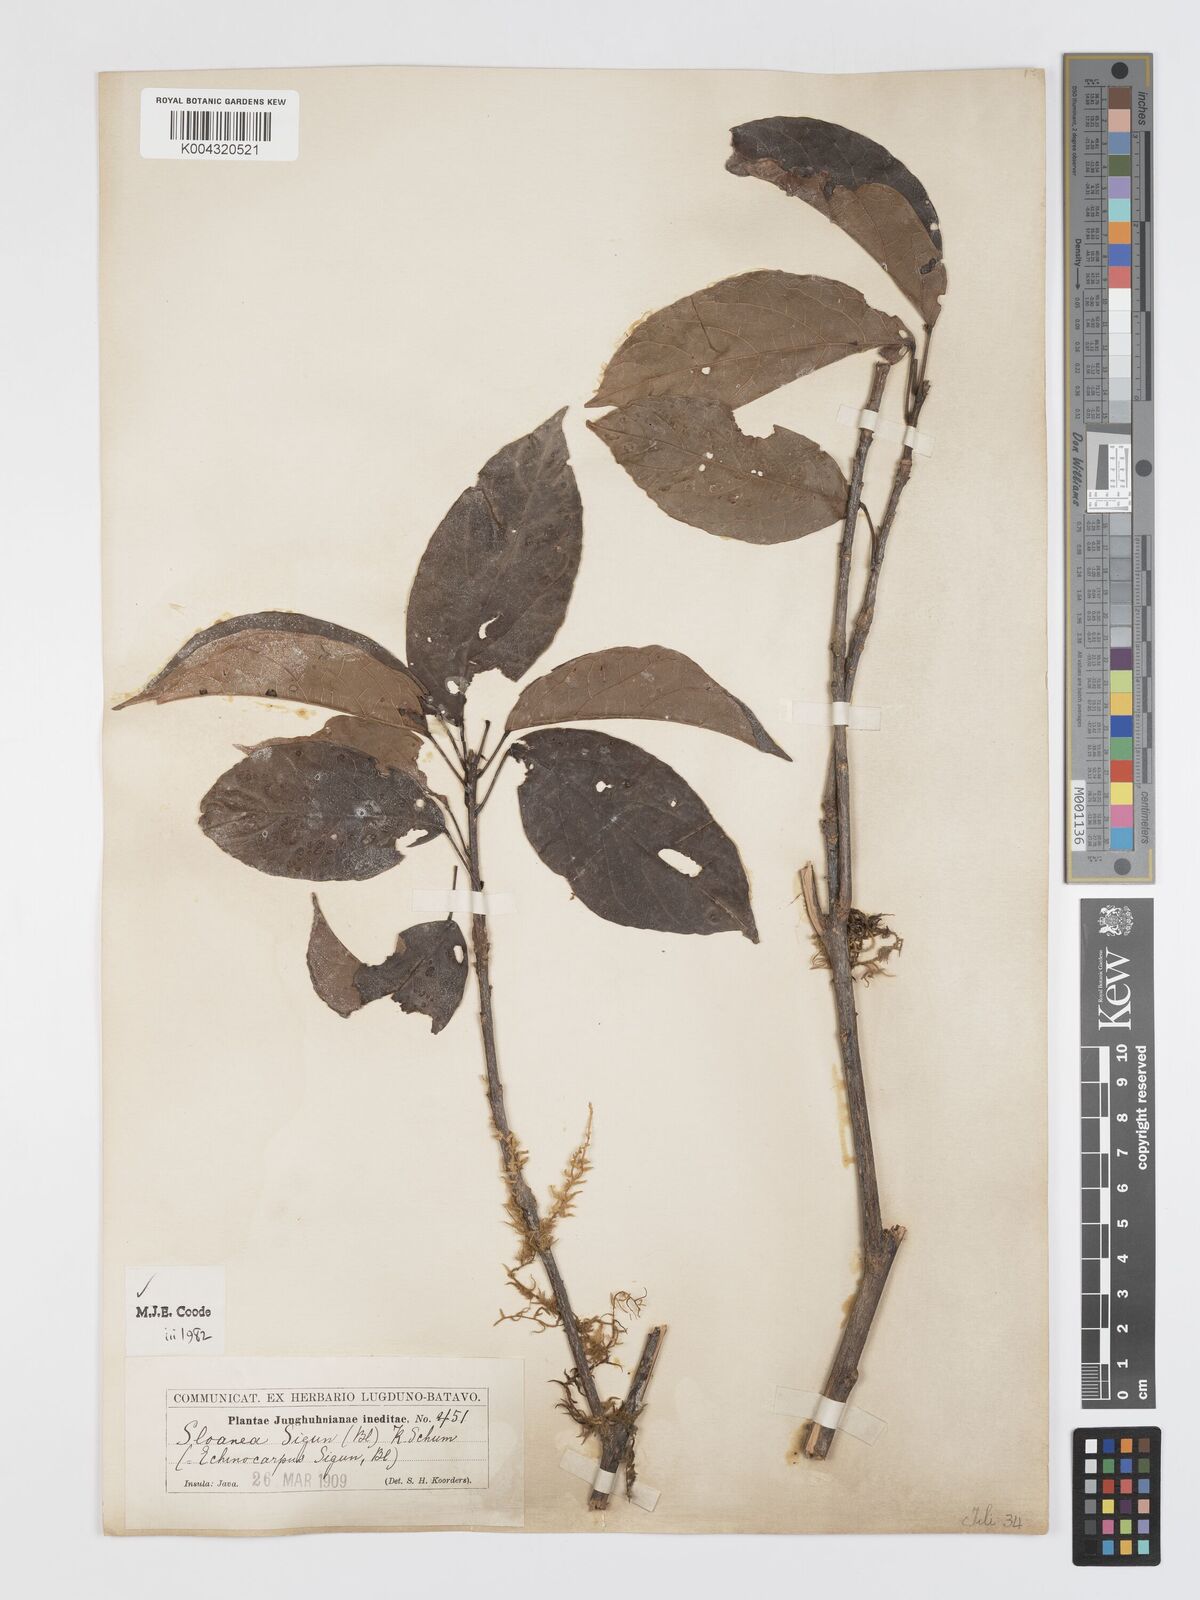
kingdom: Plantae
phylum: Tracheophyta
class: Magnoliopsida
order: Oxalidales
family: Elaeocarpaceae
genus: Sloanea
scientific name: Sloanea sigun
